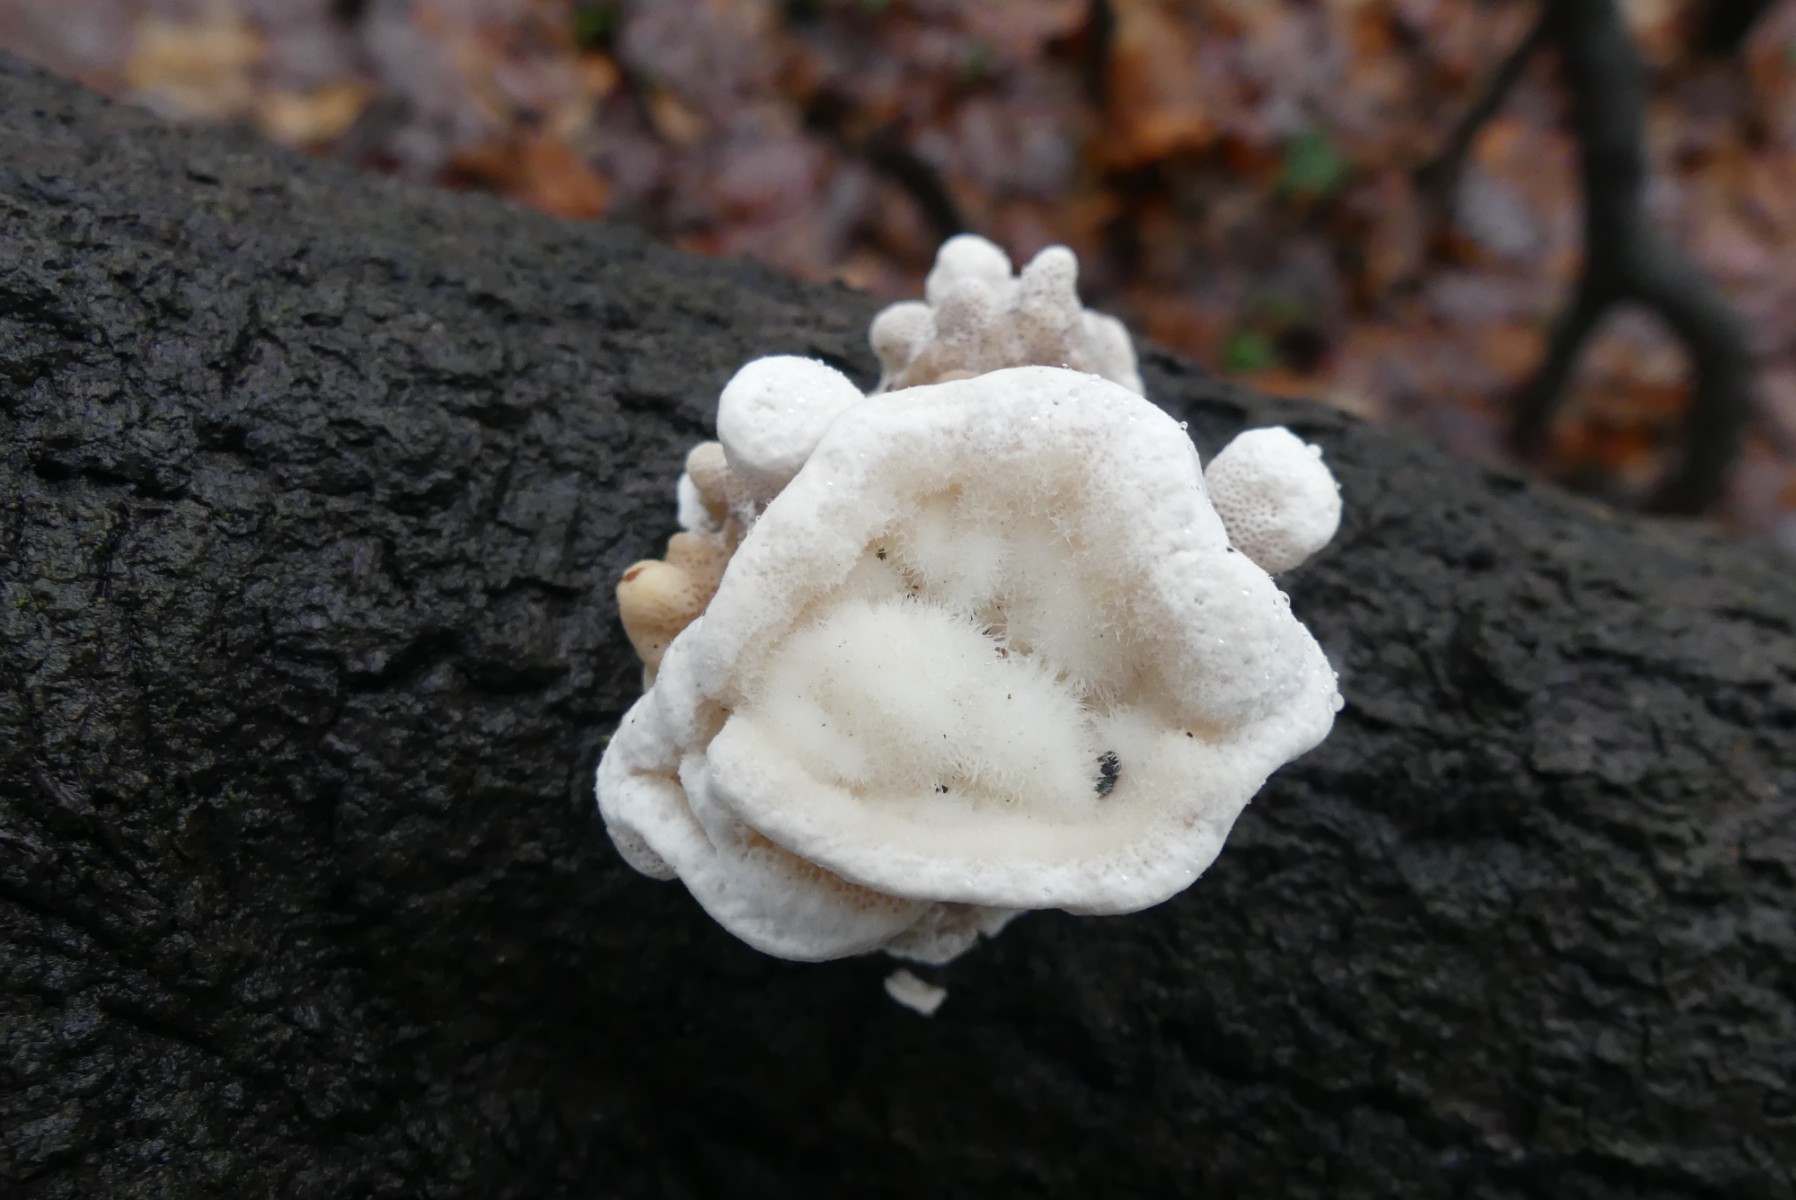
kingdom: Fungi
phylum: Basidiomycota
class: Agaricomycetes
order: Polyporales
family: Polyporaceae
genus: Trametes
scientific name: Trametes hirsuta
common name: håret læderporesvamp
